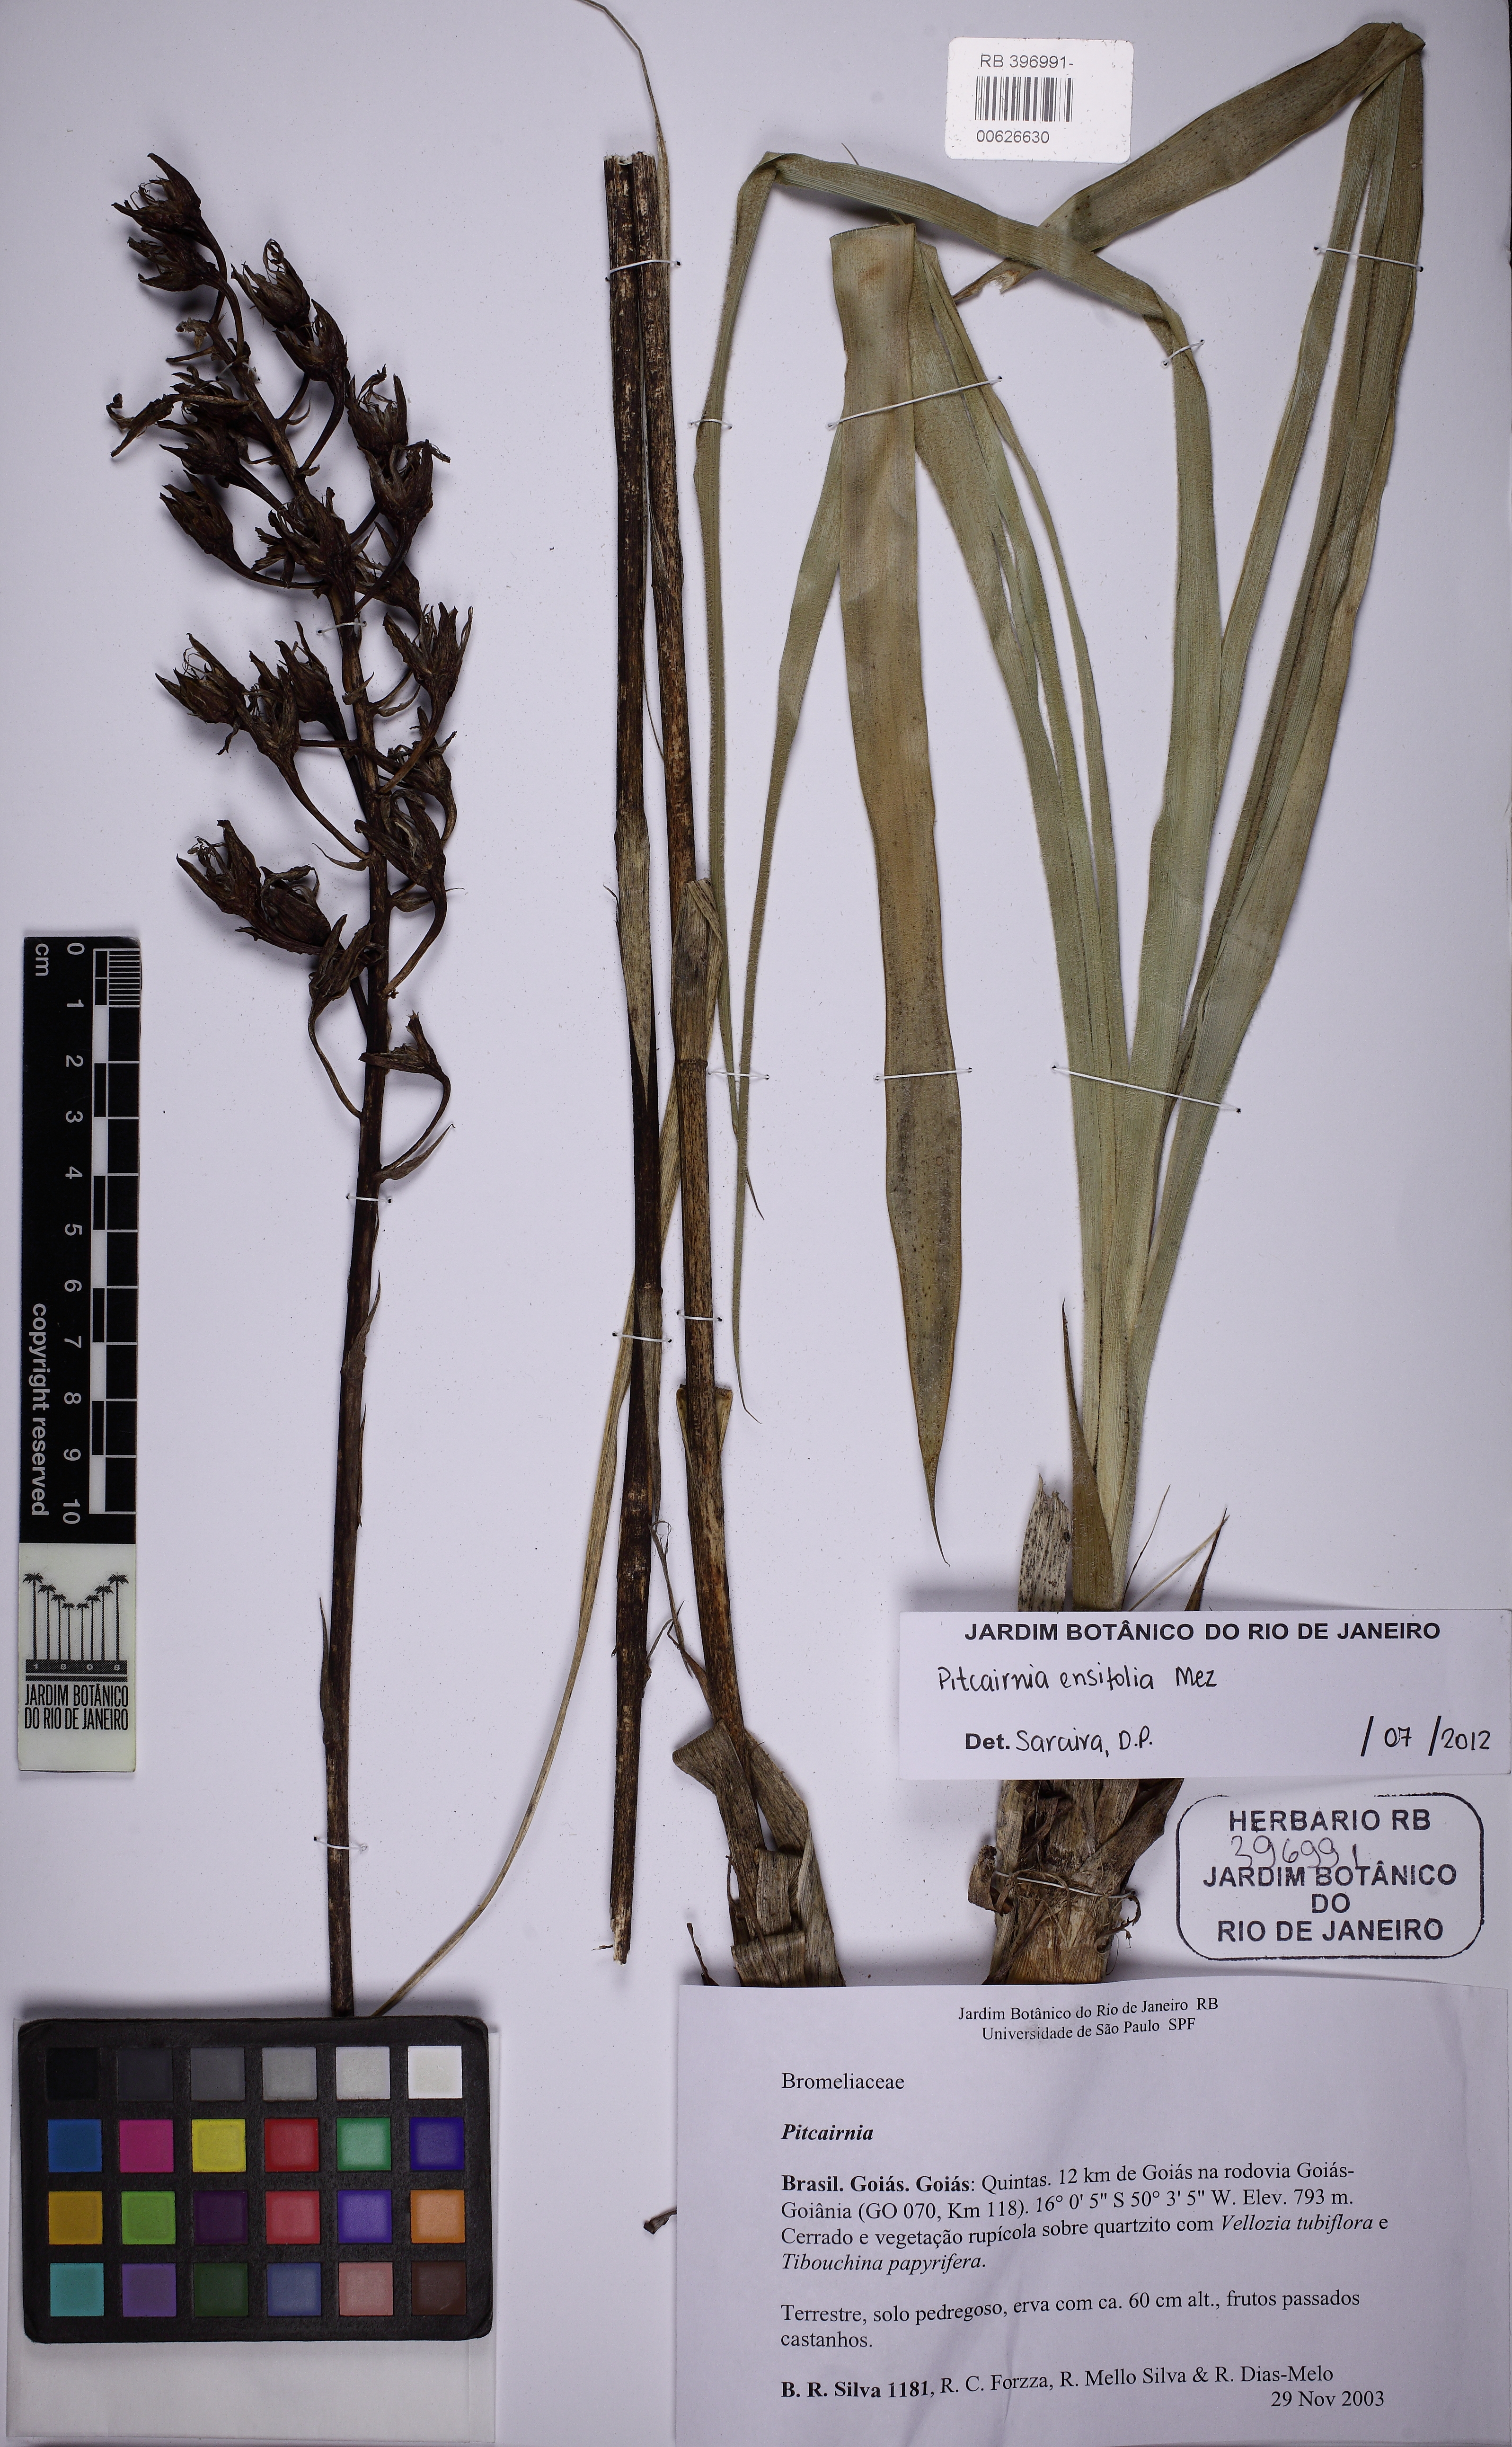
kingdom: Plantae
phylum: Tracheophyta
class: Liliopsida
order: Poales
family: Bromeliaceae
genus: Pitcairnia
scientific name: Pitcairnia ensifolia
